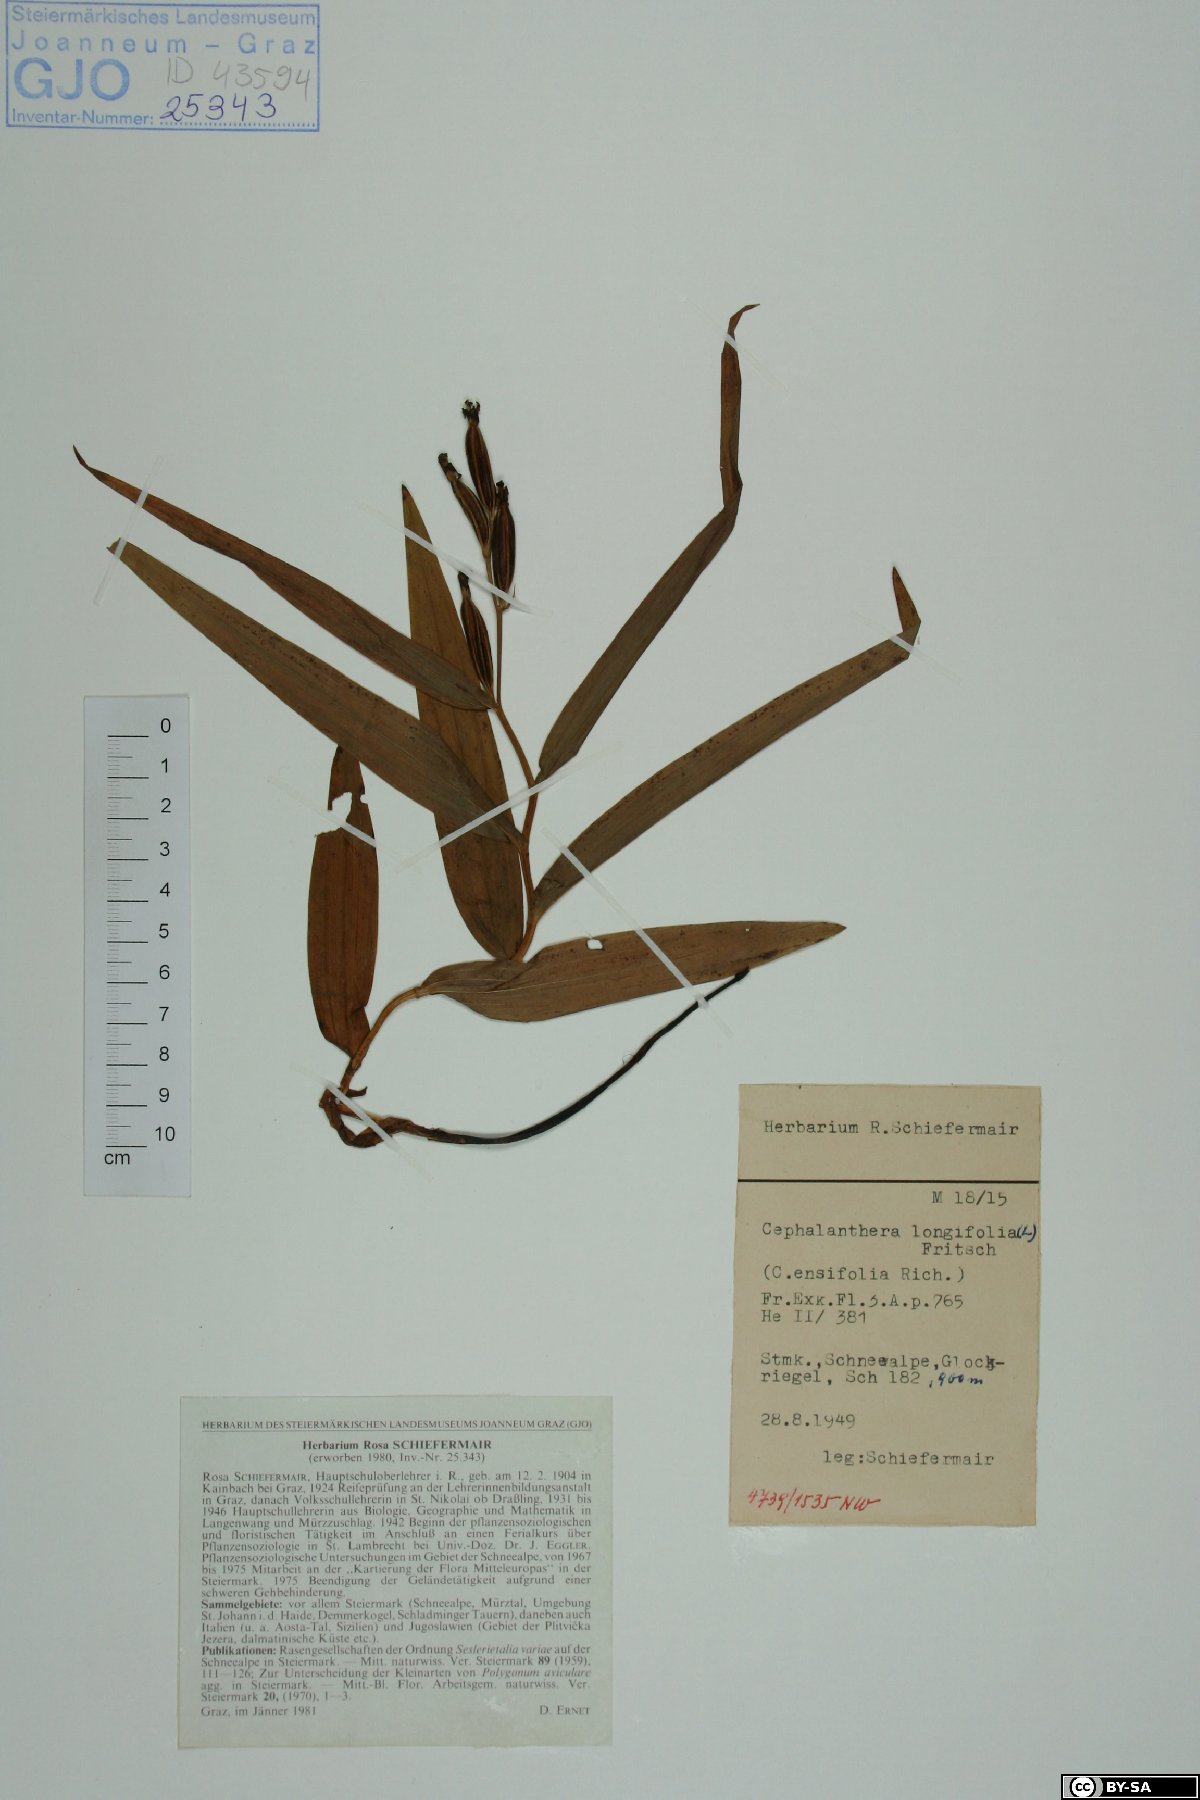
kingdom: Plantae
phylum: Tracheophyta
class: Liliopsida
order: Asparagales
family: Orchidaceae
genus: Cephalanthera
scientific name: Cephalanthera longifolia
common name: Narrow-leaved helleborine
